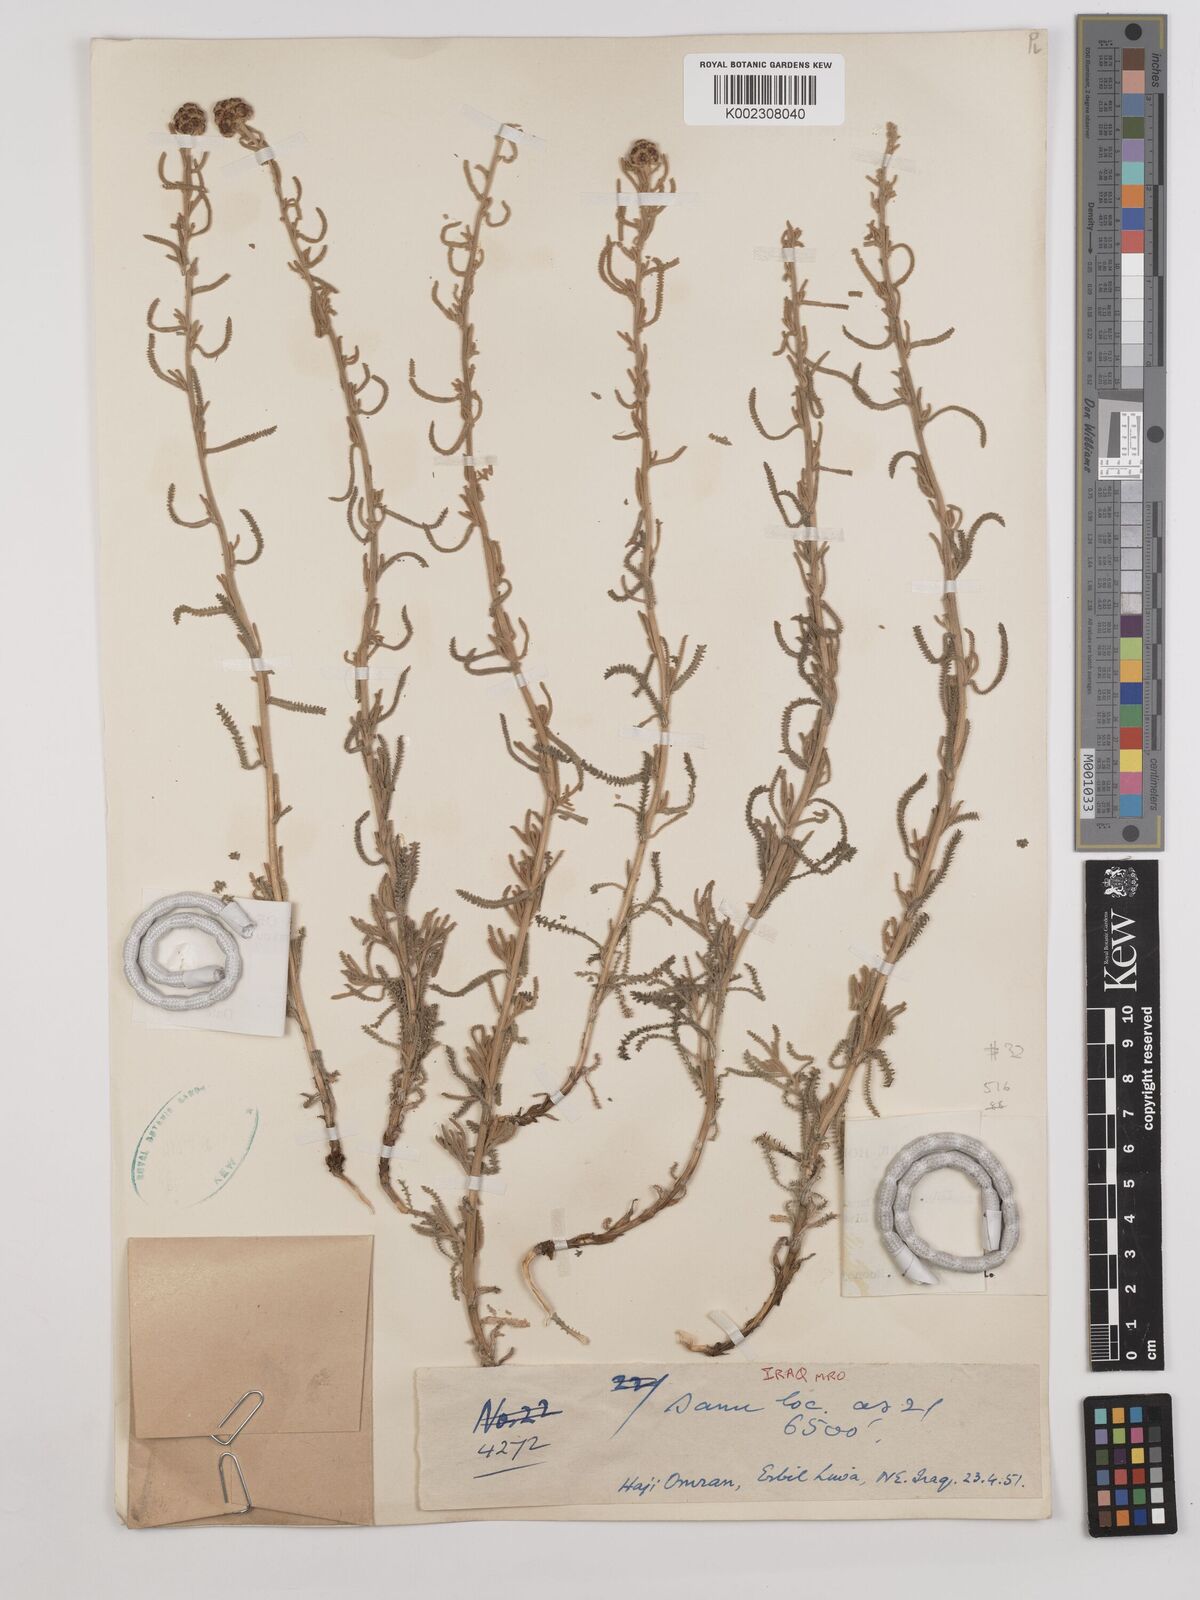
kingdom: Plantae
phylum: Tracheophyta
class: Magnoliopsida
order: Asterales
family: Asteraceae
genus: Achillea
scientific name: Achillea vermicularis
